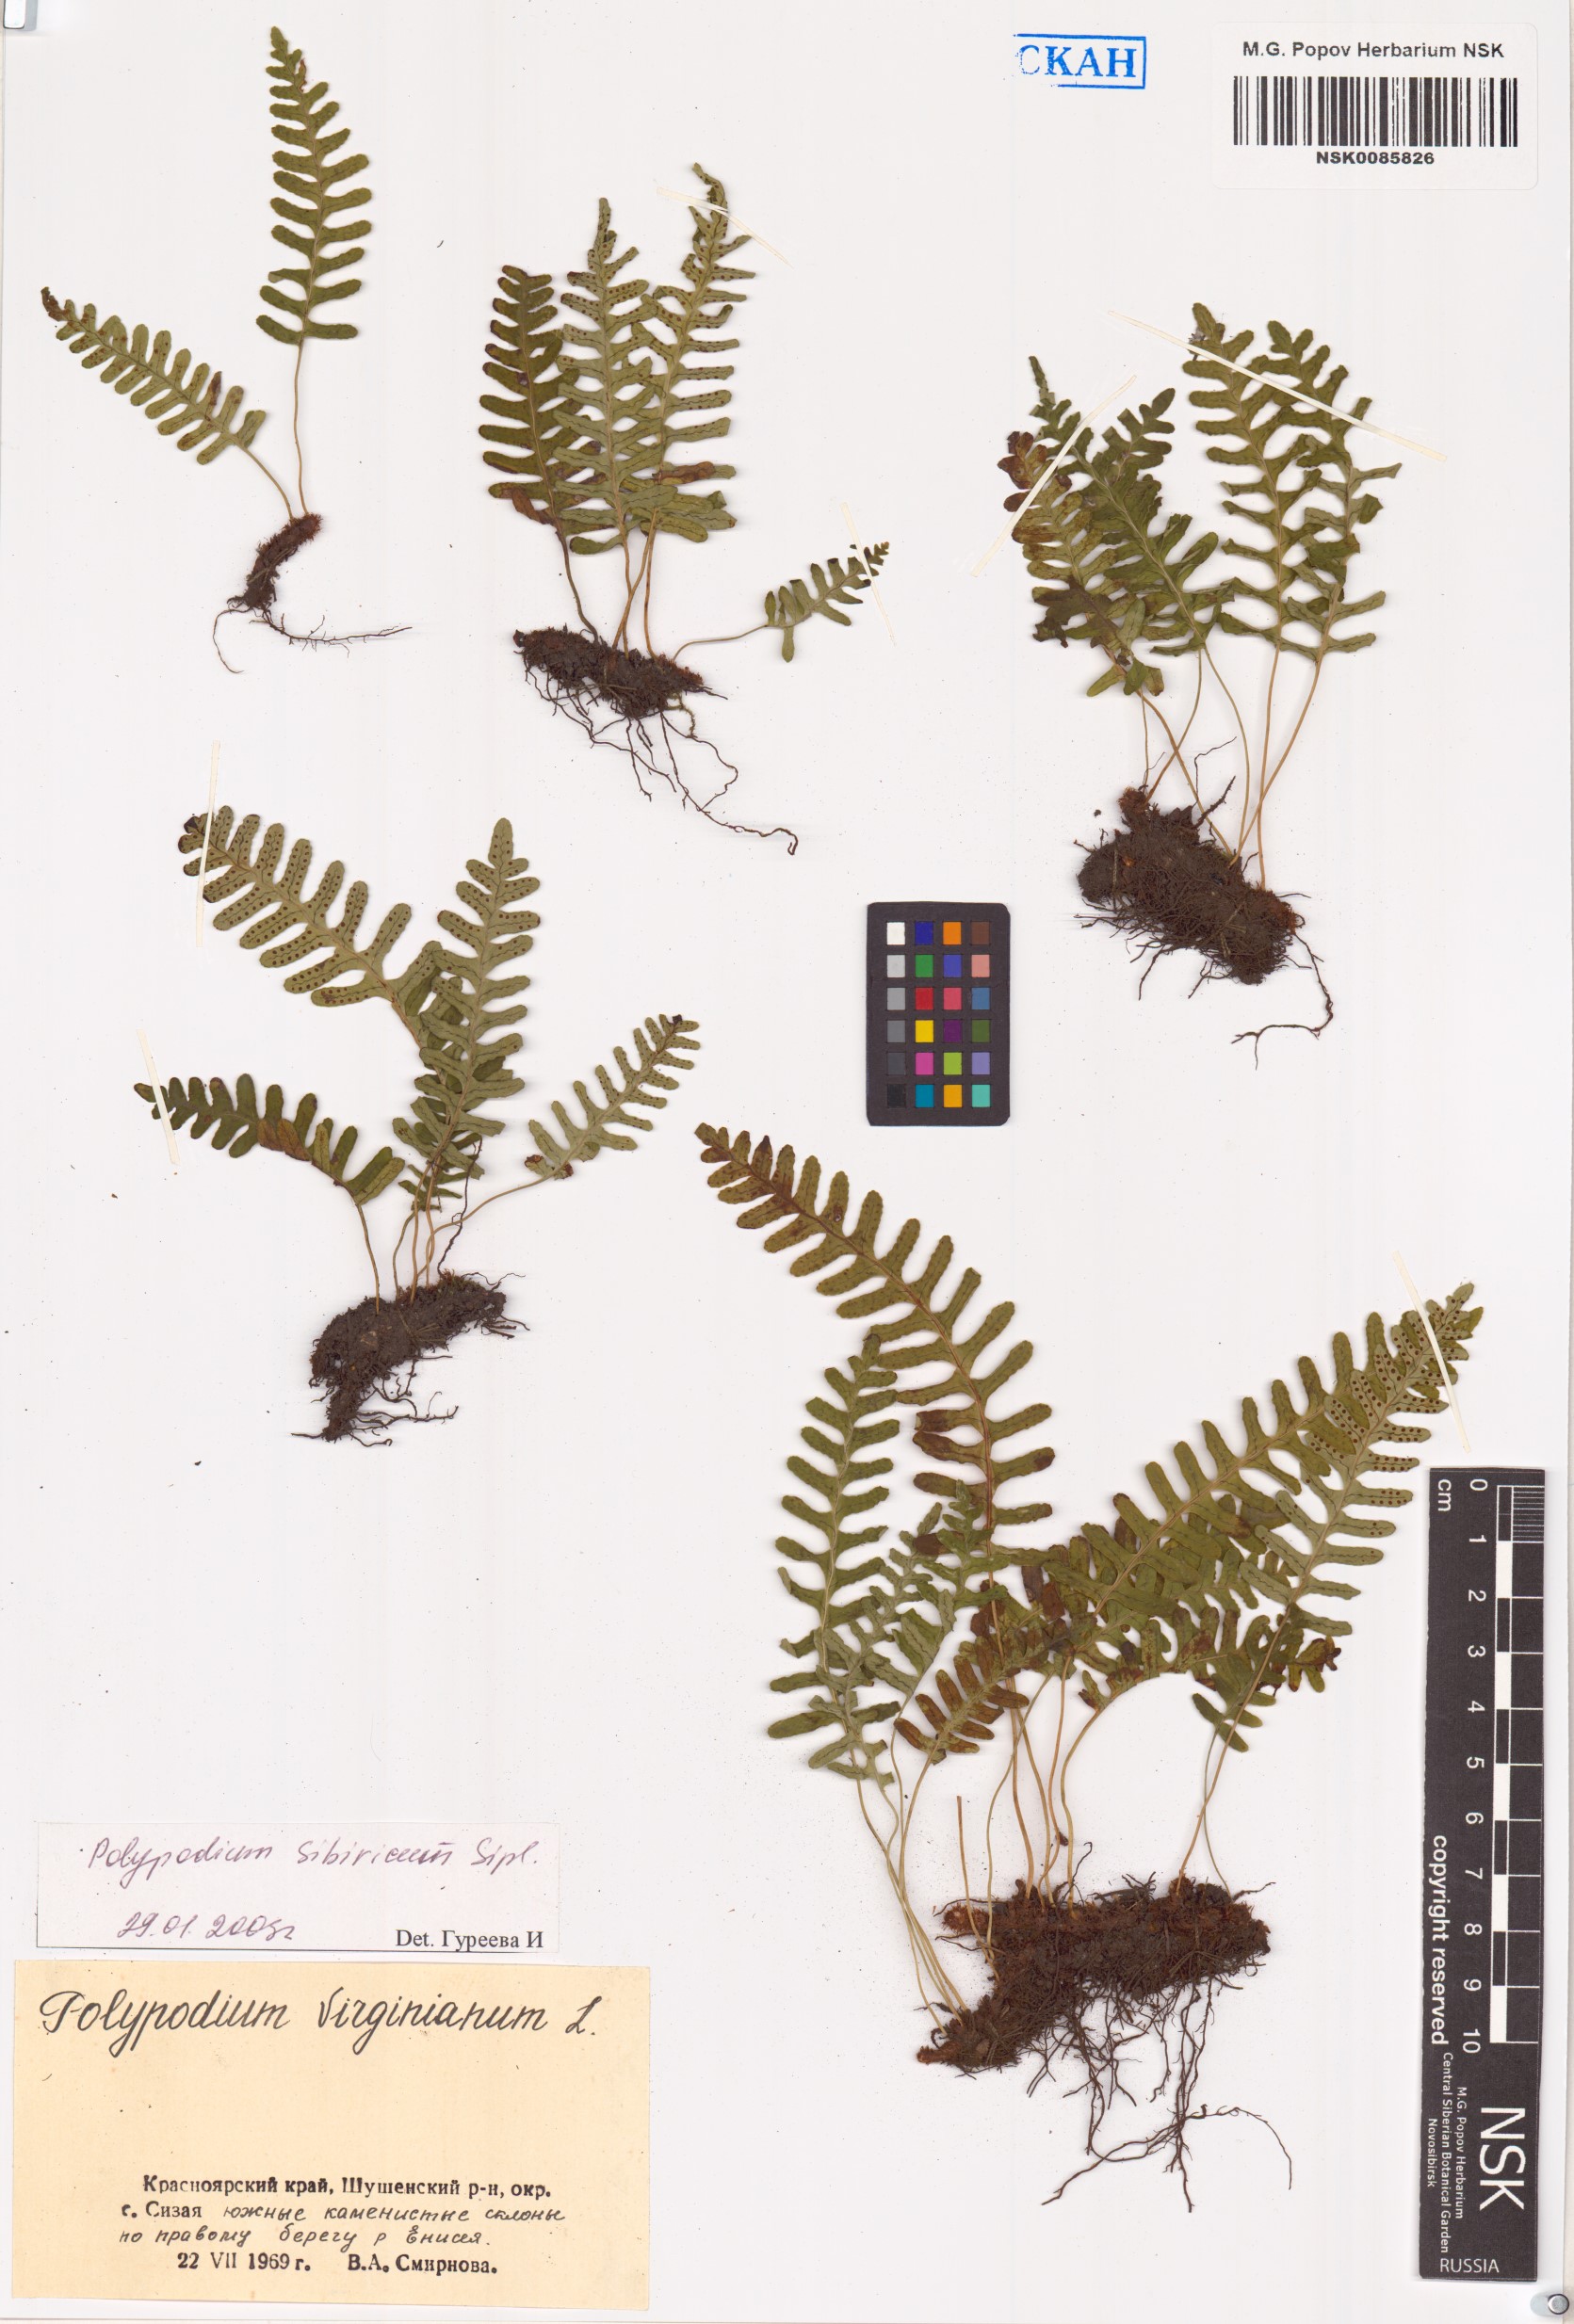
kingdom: Plantae
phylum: Tracheophyta
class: Polypodiopsida
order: Polypodiales
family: Polypodiaceae
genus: Polypodium
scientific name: Polypodium sibiricum
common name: Siberian polypody
